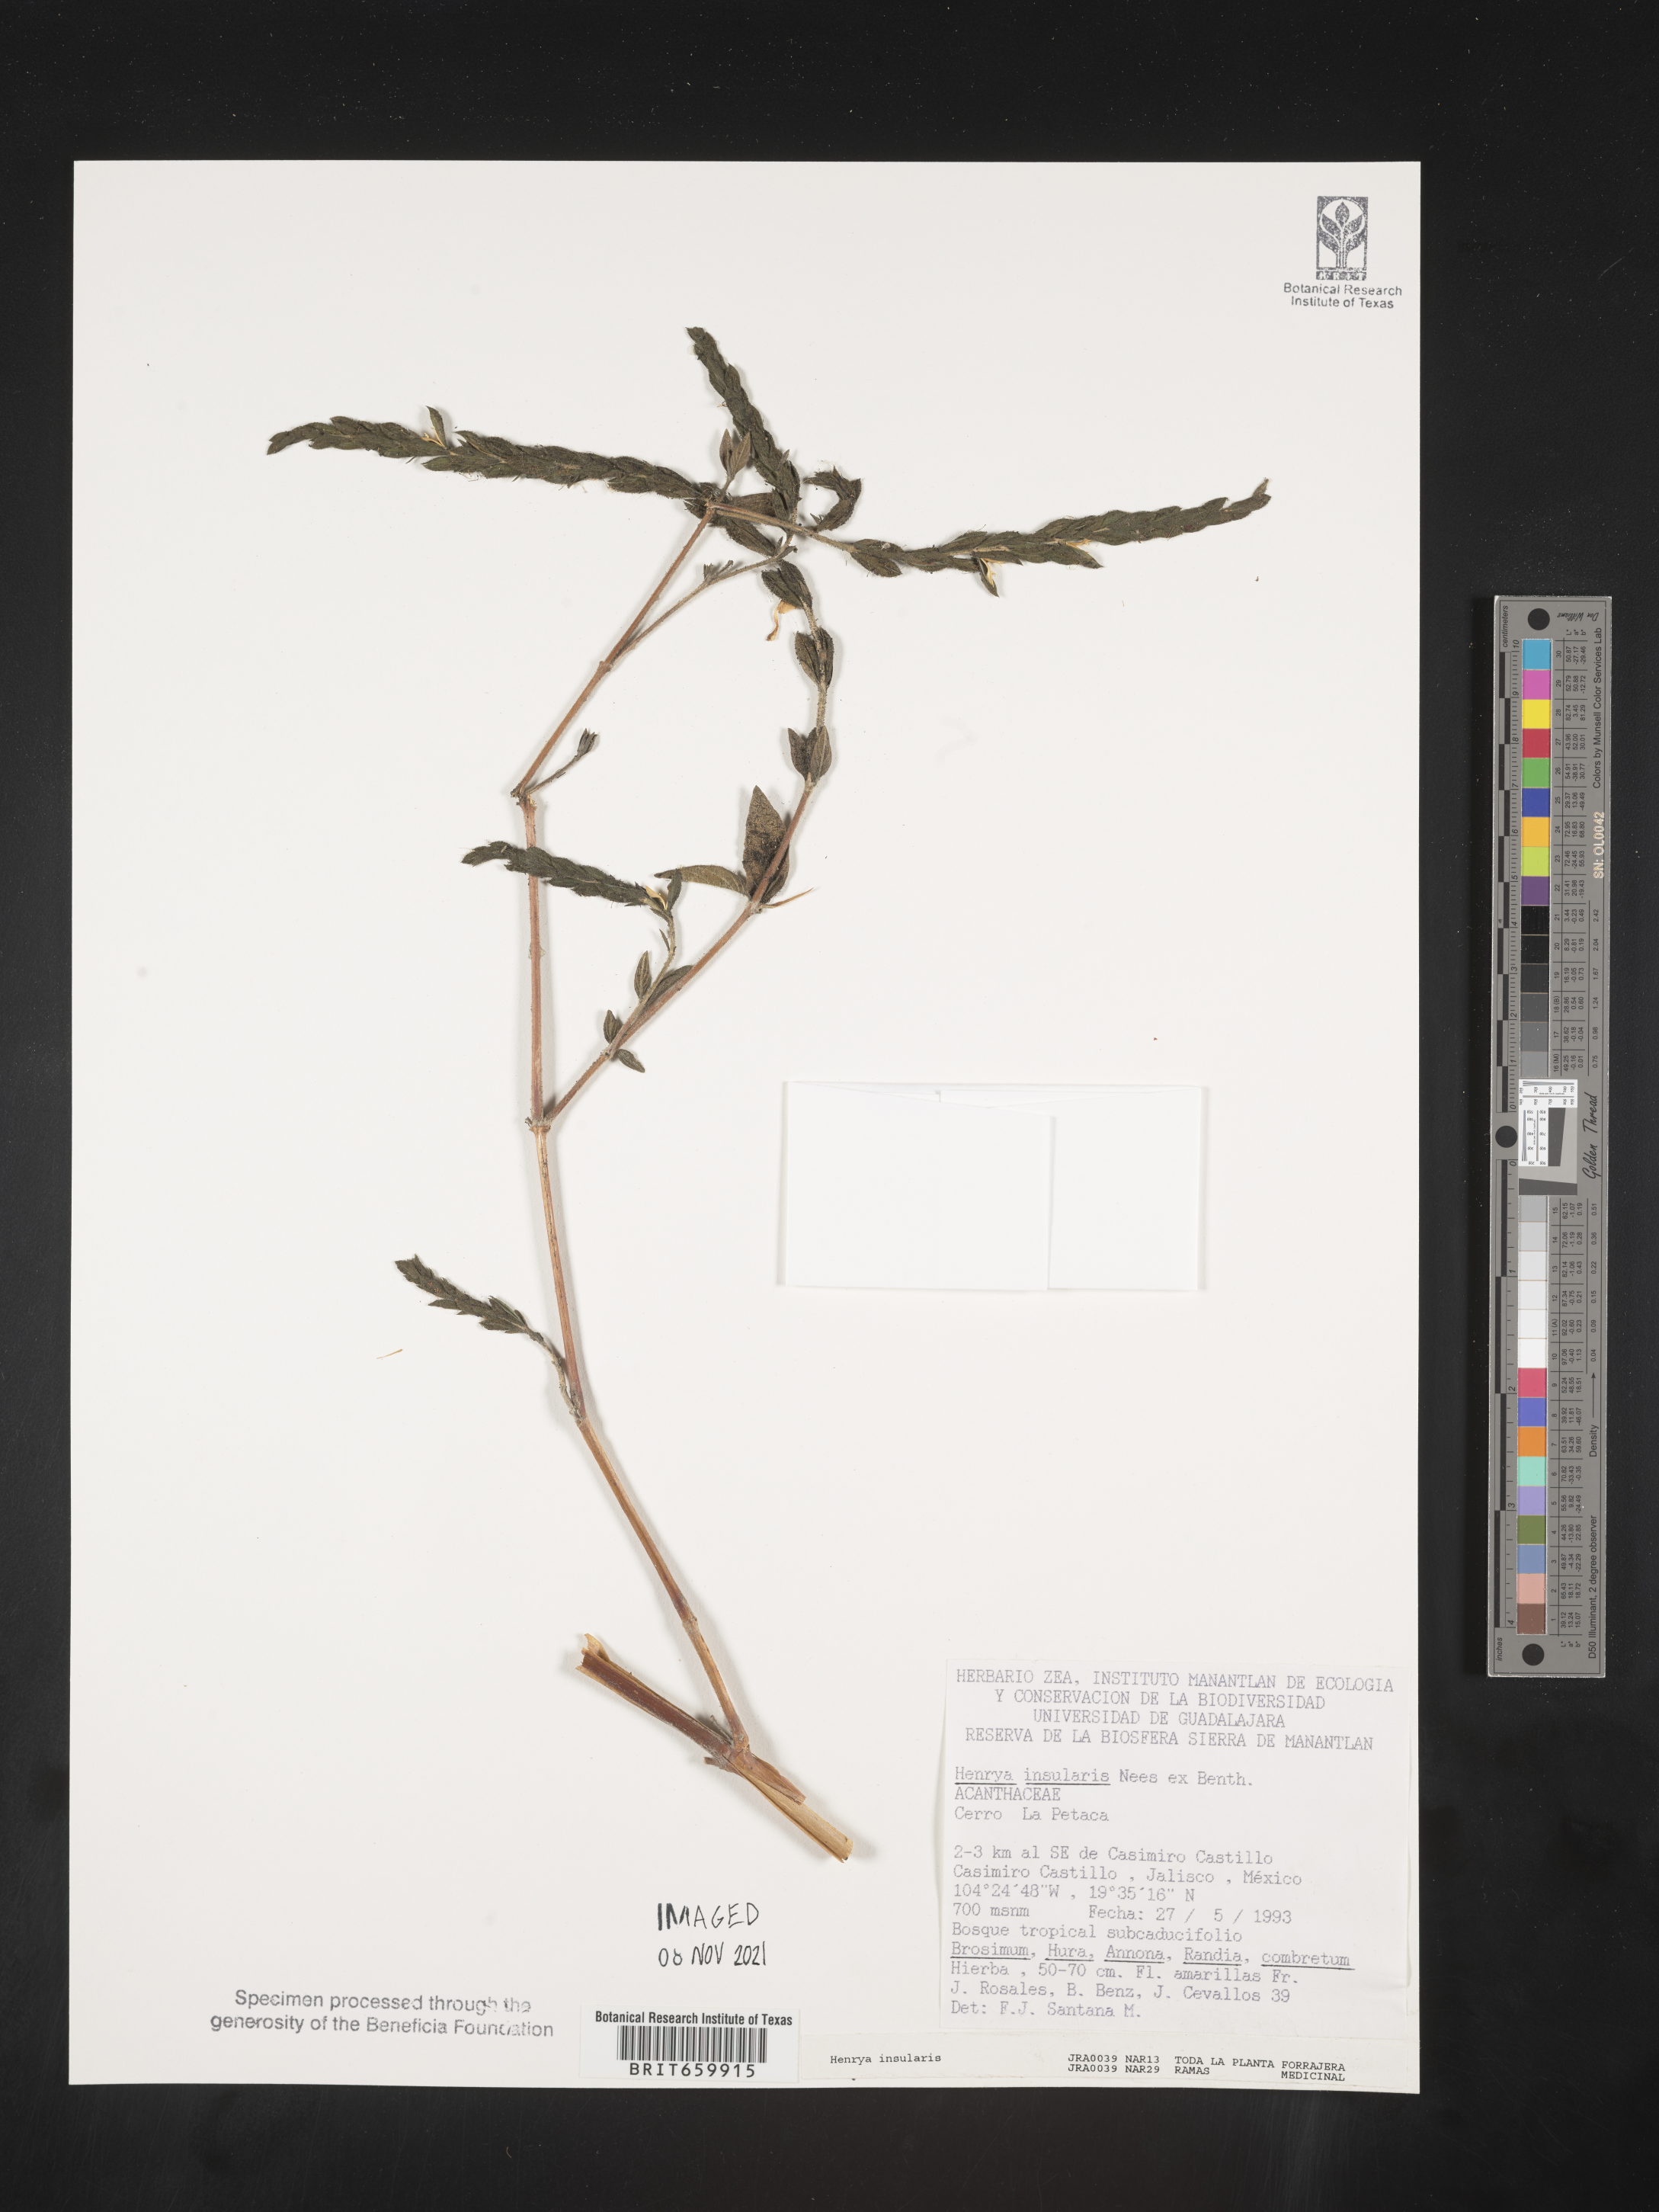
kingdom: Plantae
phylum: Tracheophyta
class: Magnoliopsida
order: Lamiales
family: Acanthaceae
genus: Henrya
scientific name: Henrya
